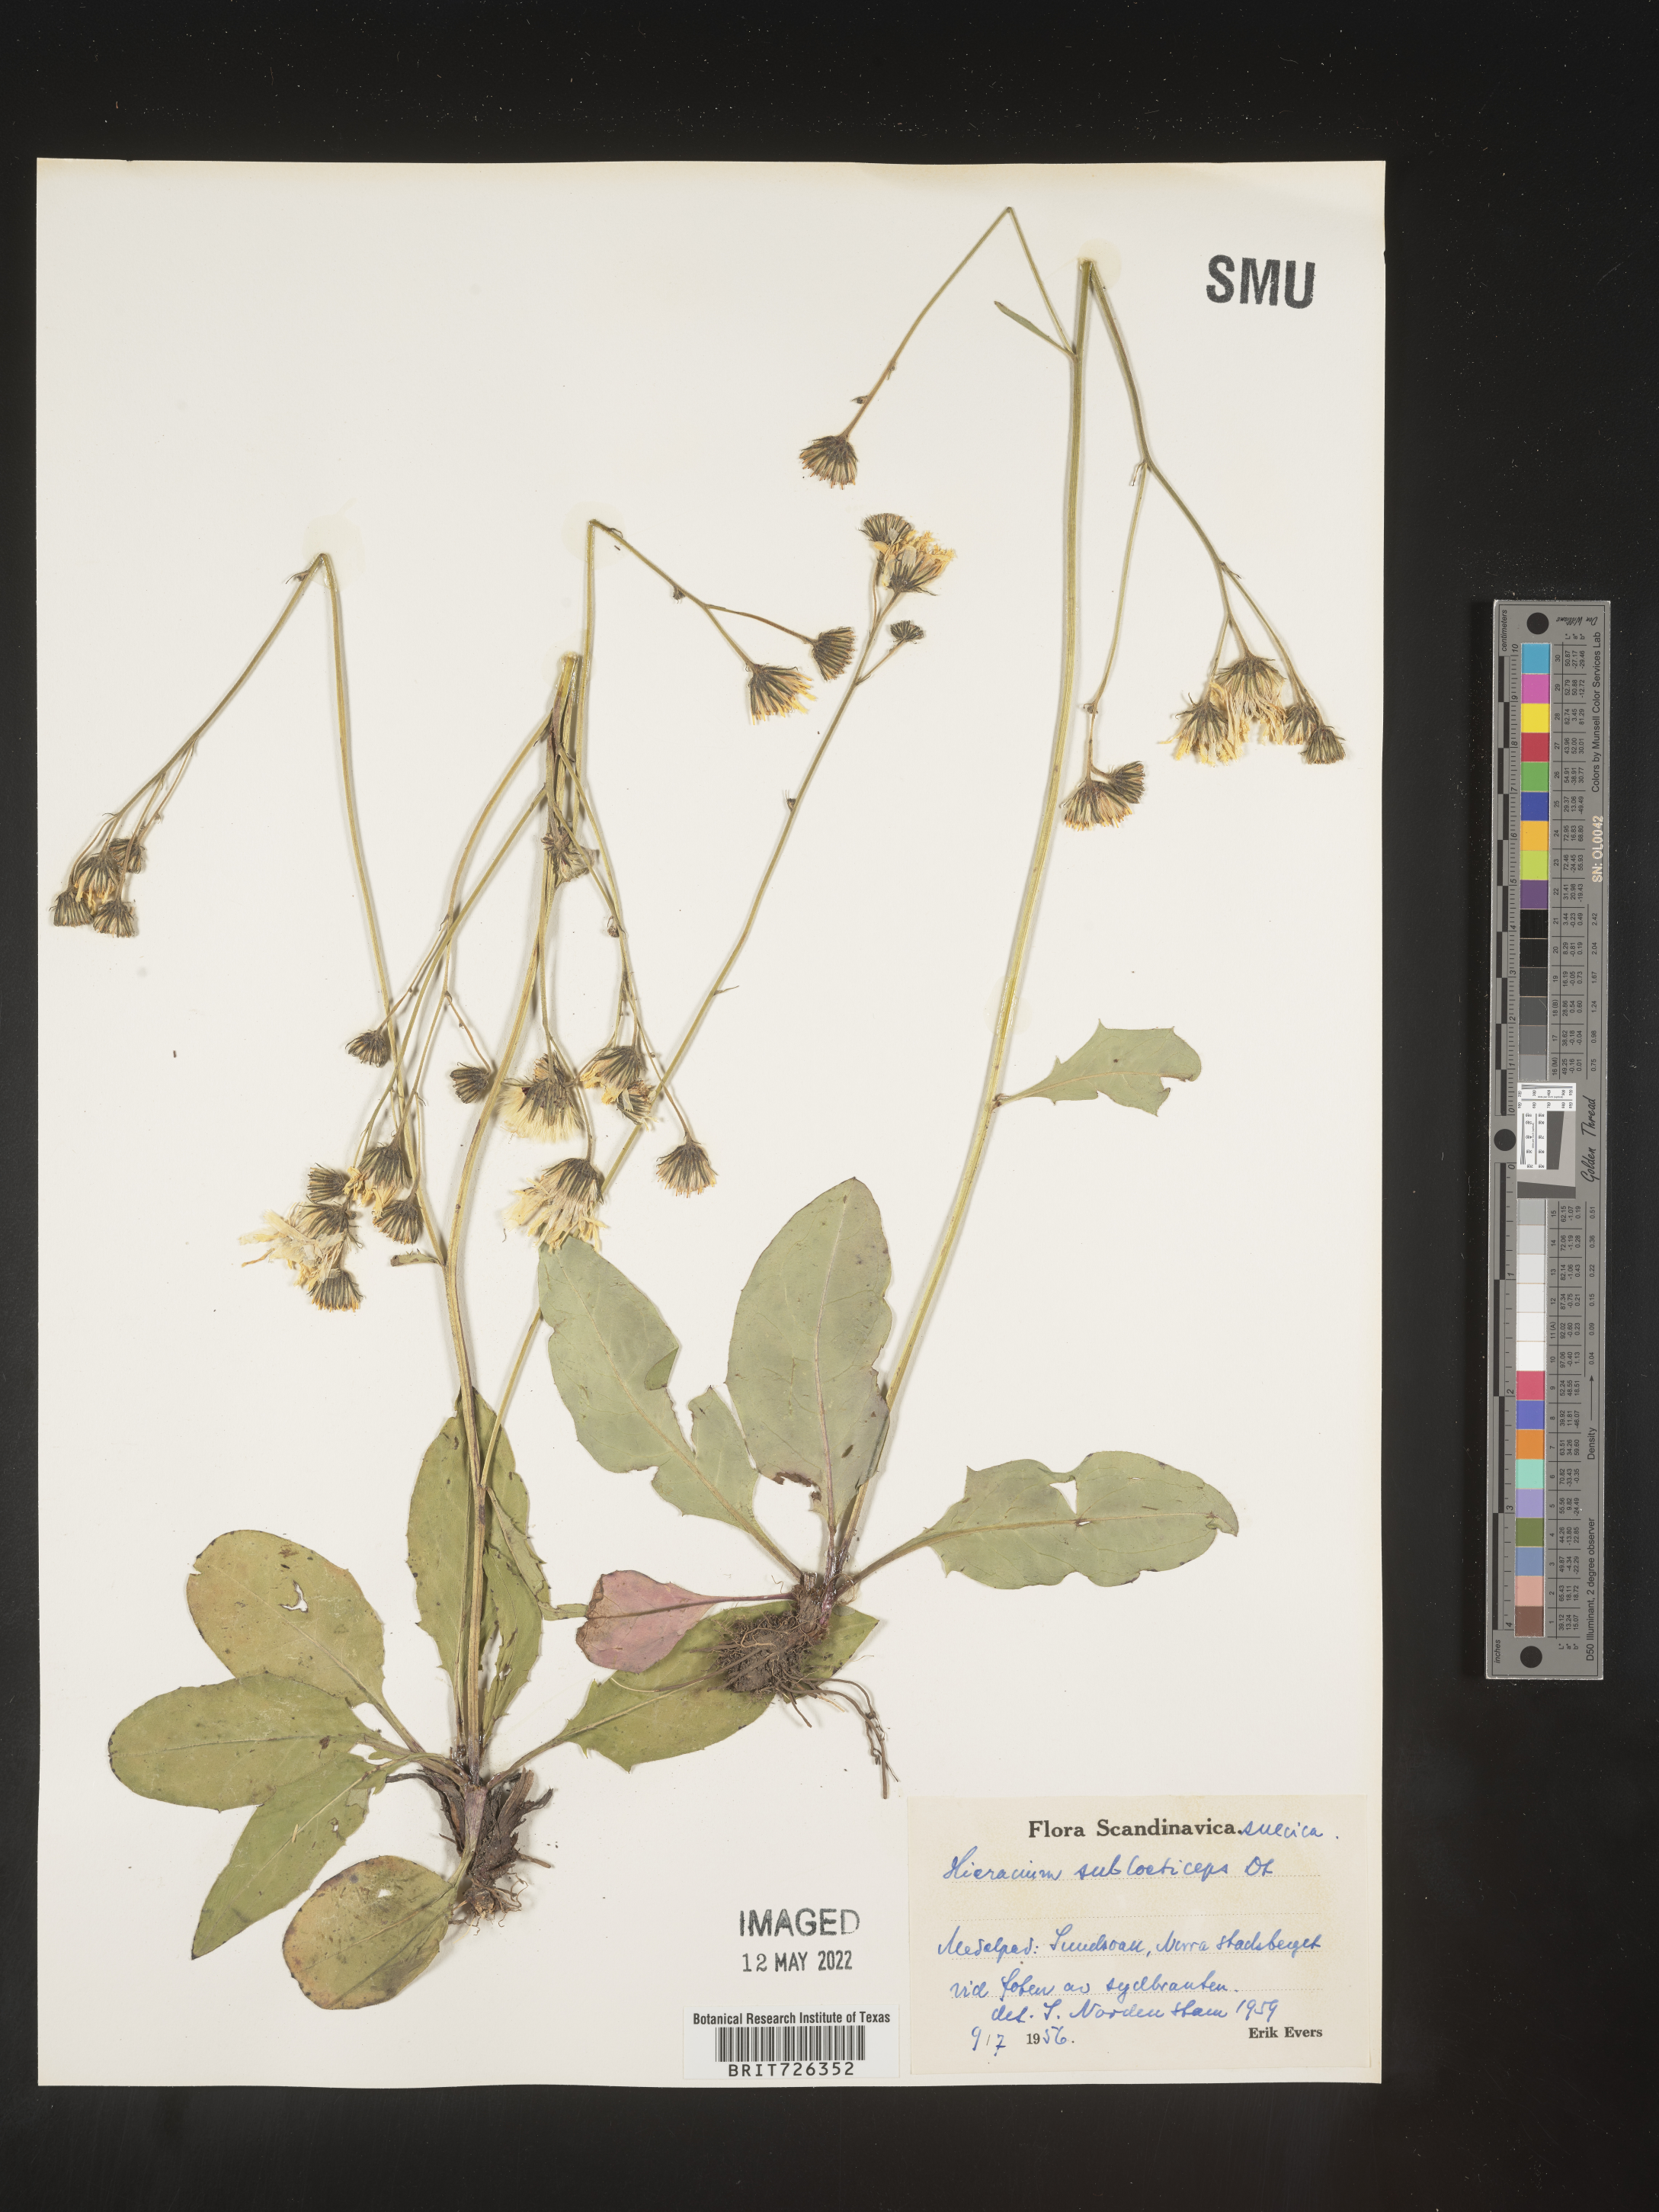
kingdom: Plantae
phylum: Tracheophyta
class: Magnoliopsida
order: Asterales
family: Asteraceae
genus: Hieracium
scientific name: Hieracium
